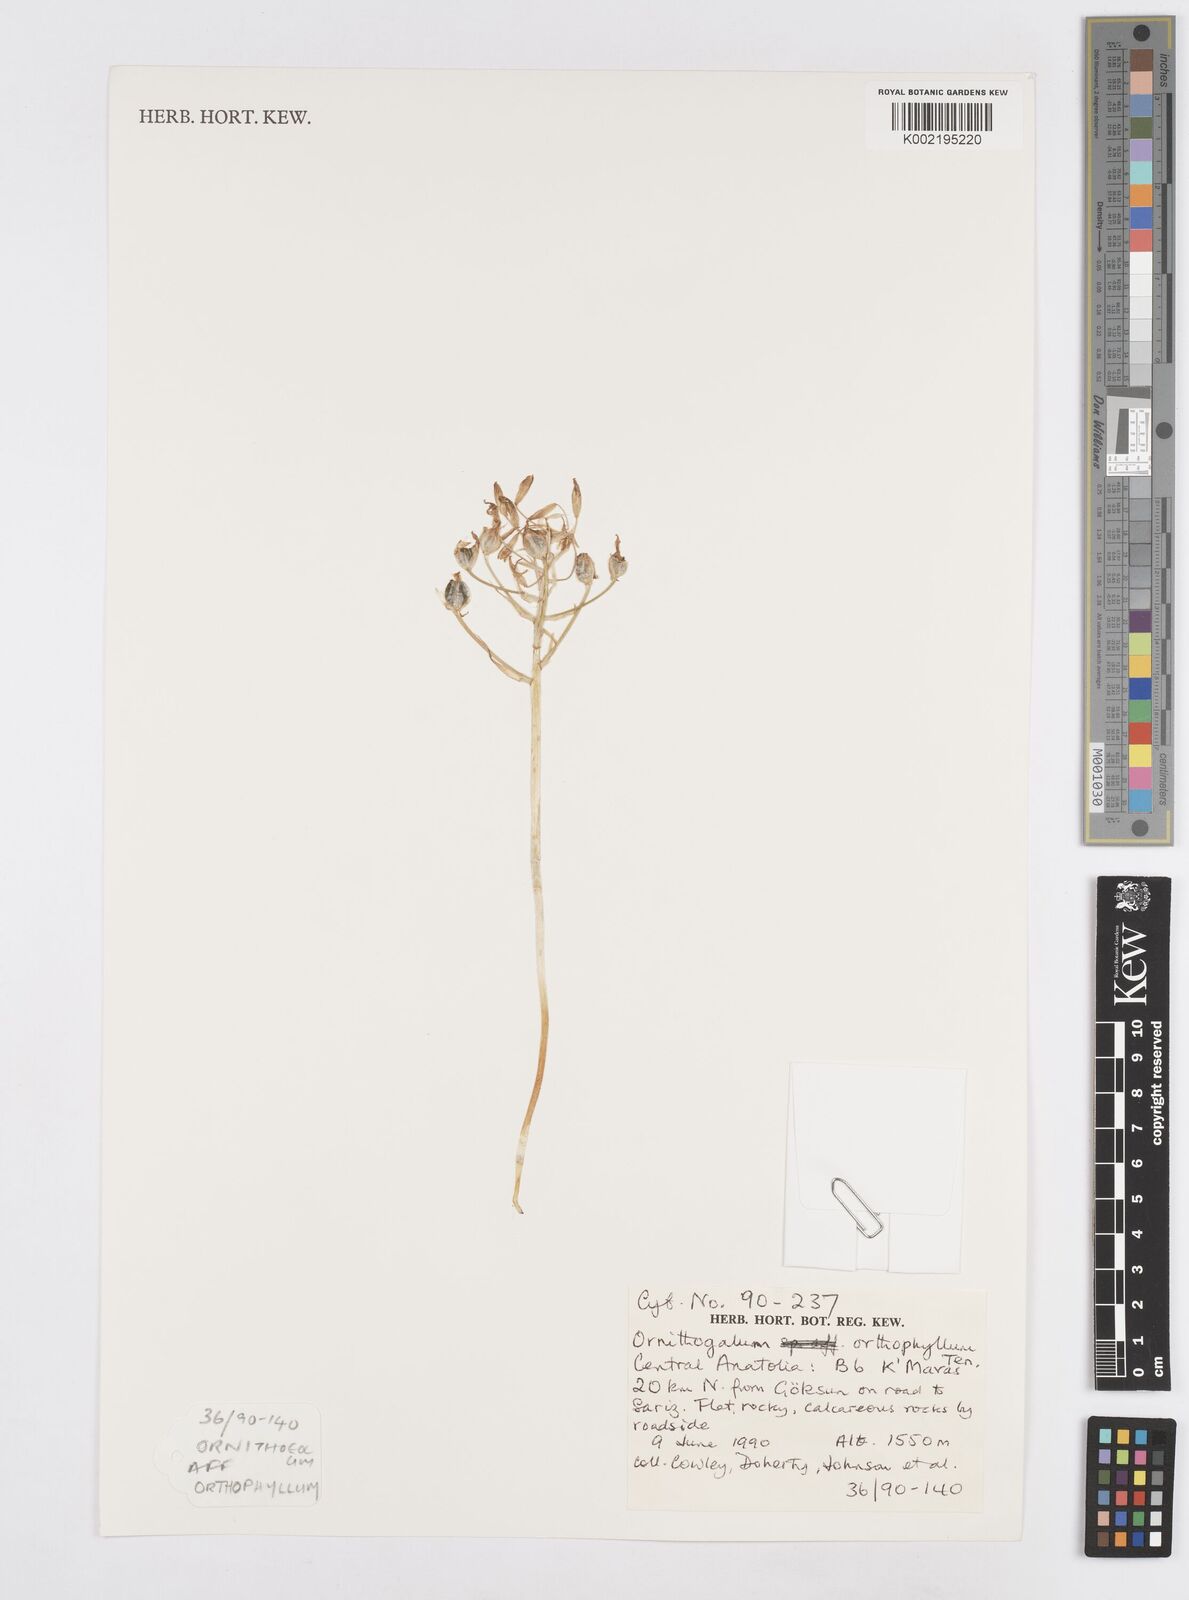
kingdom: Plantae
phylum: Tracheophyta
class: Liliopsida
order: Asparagales
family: Asparagaceae
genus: Ornithogalum
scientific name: Ornithogalum orthophyllum
